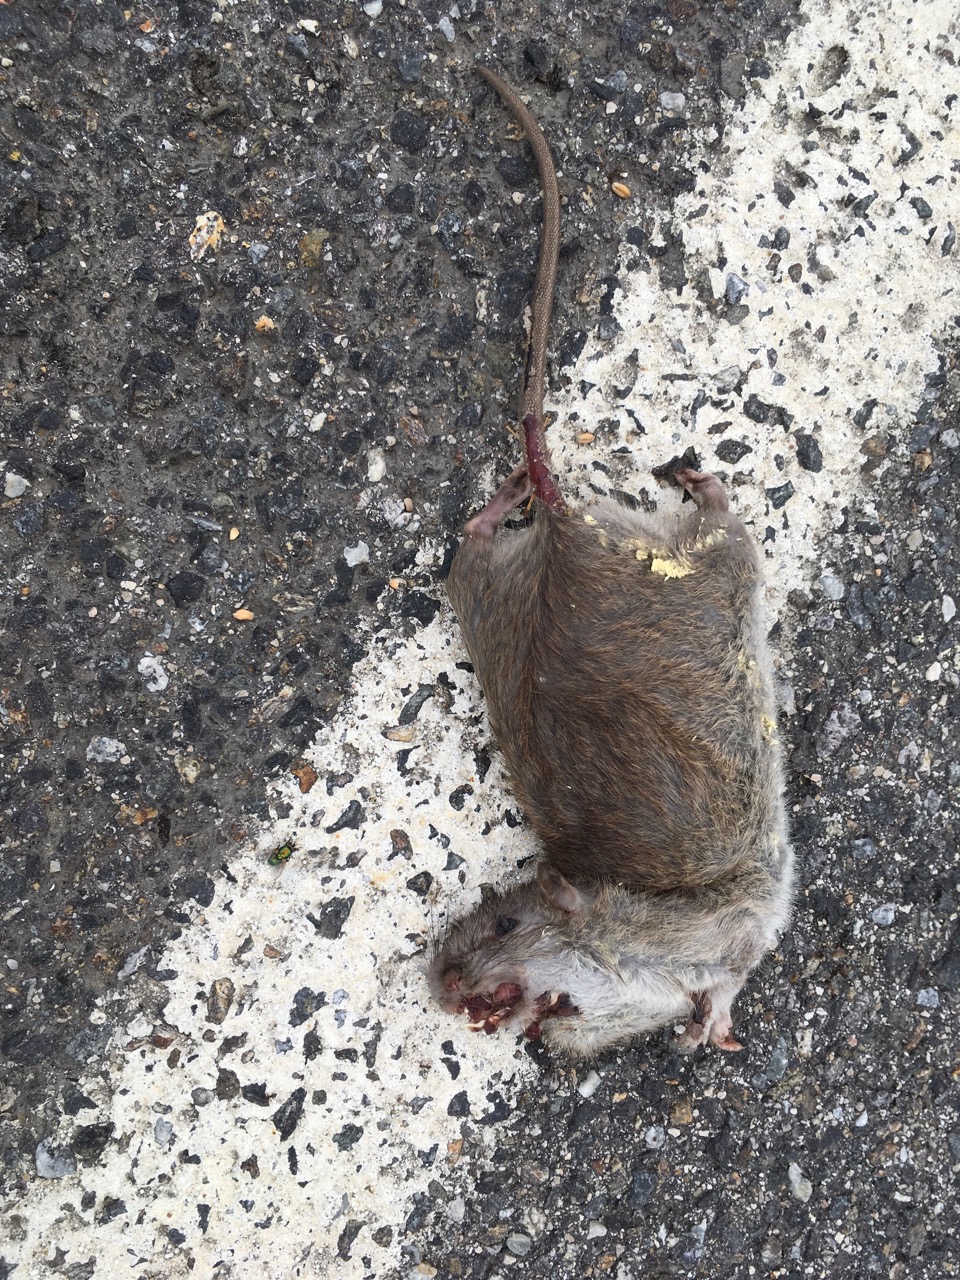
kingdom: Animalia
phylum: Chordata
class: Mammalia
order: Rodentia
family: Muridae
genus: Rattus
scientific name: Rattus norvegicus
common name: Brown rat
